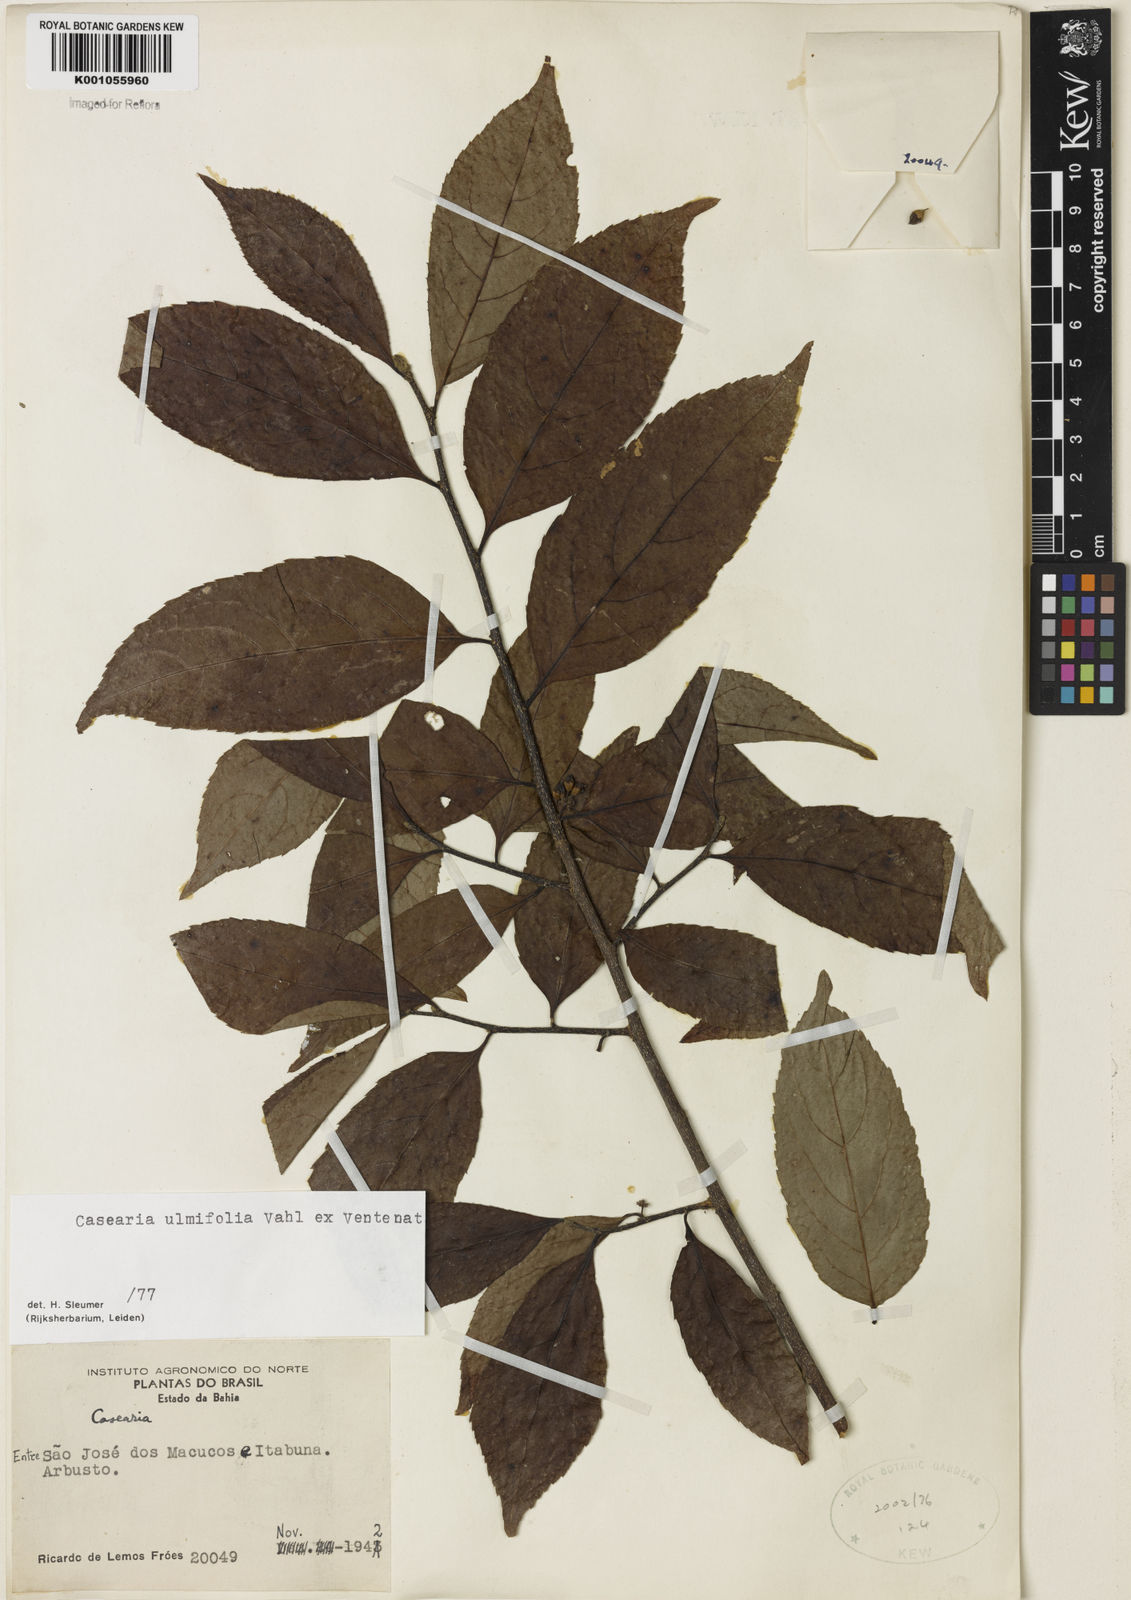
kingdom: Plantae
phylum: Tracheophyta
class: Magnoliopsida
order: Malpighiales
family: Salicaceae
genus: Casearia
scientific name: Casearia ulmifolia
